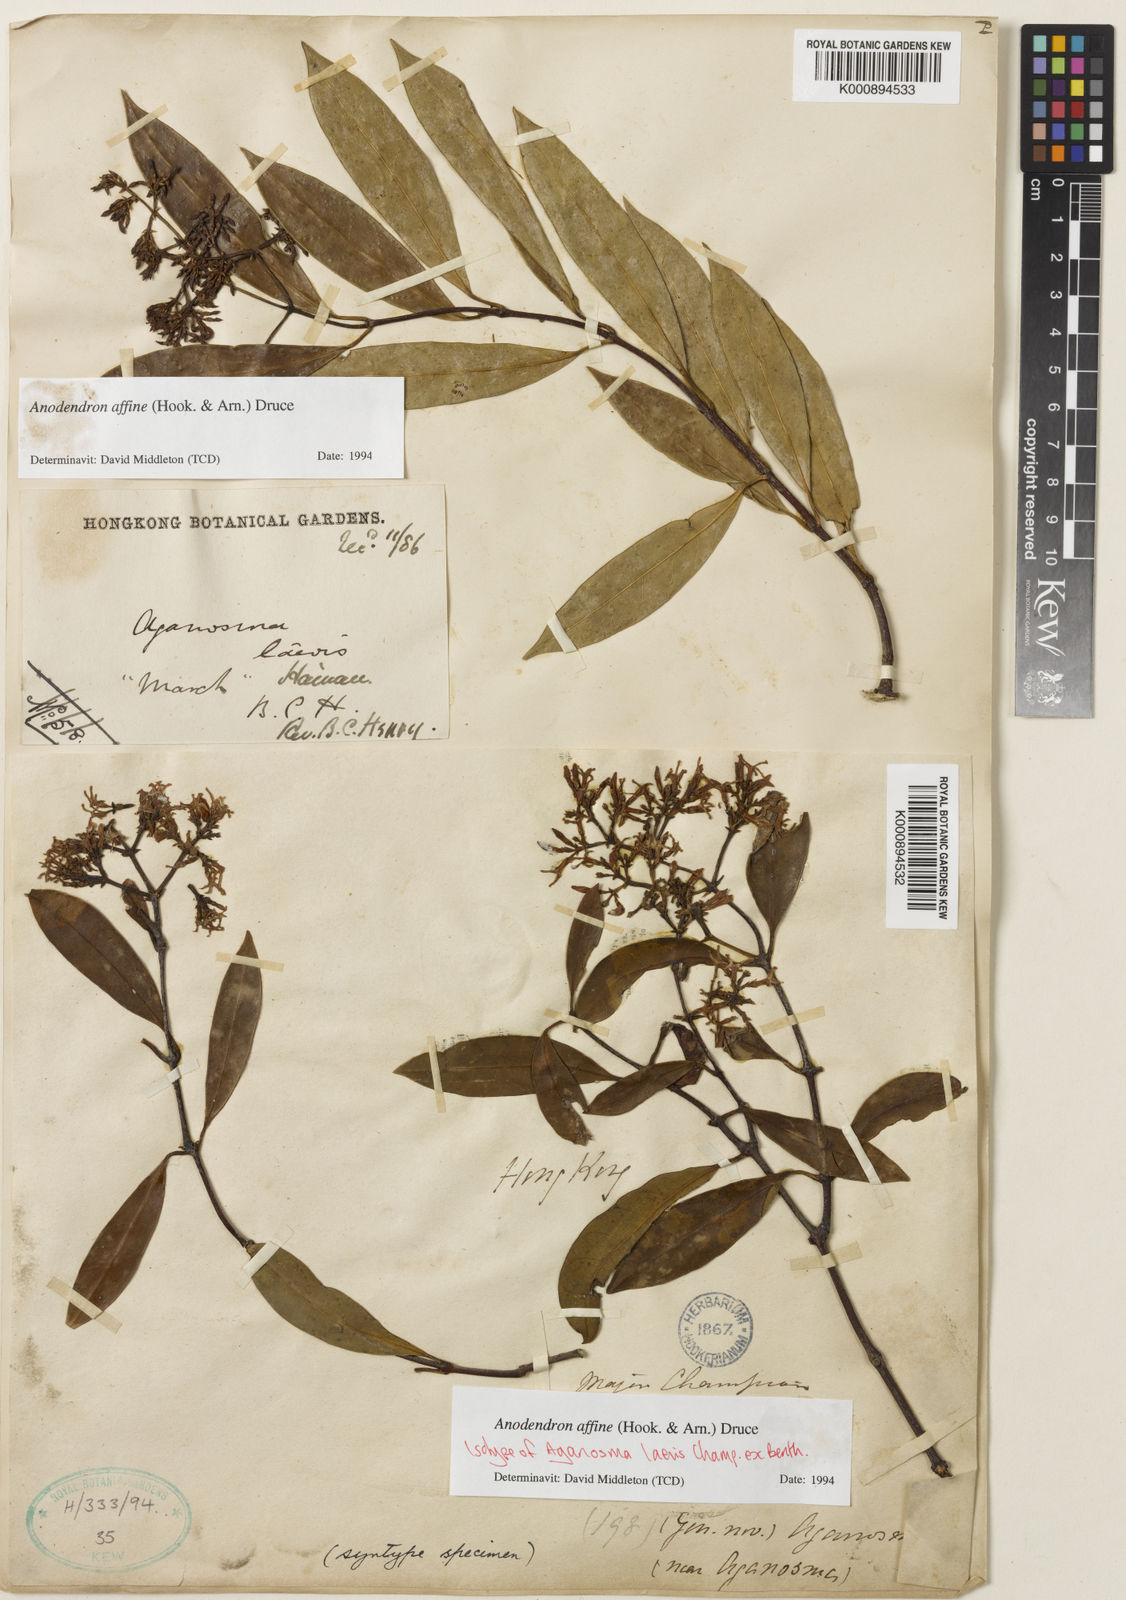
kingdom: Plantae
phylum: Tracheophyta
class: Magnoliopsida
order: Gentianales
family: Apocynaceae
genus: Anodendron
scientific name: Anodendron affine
